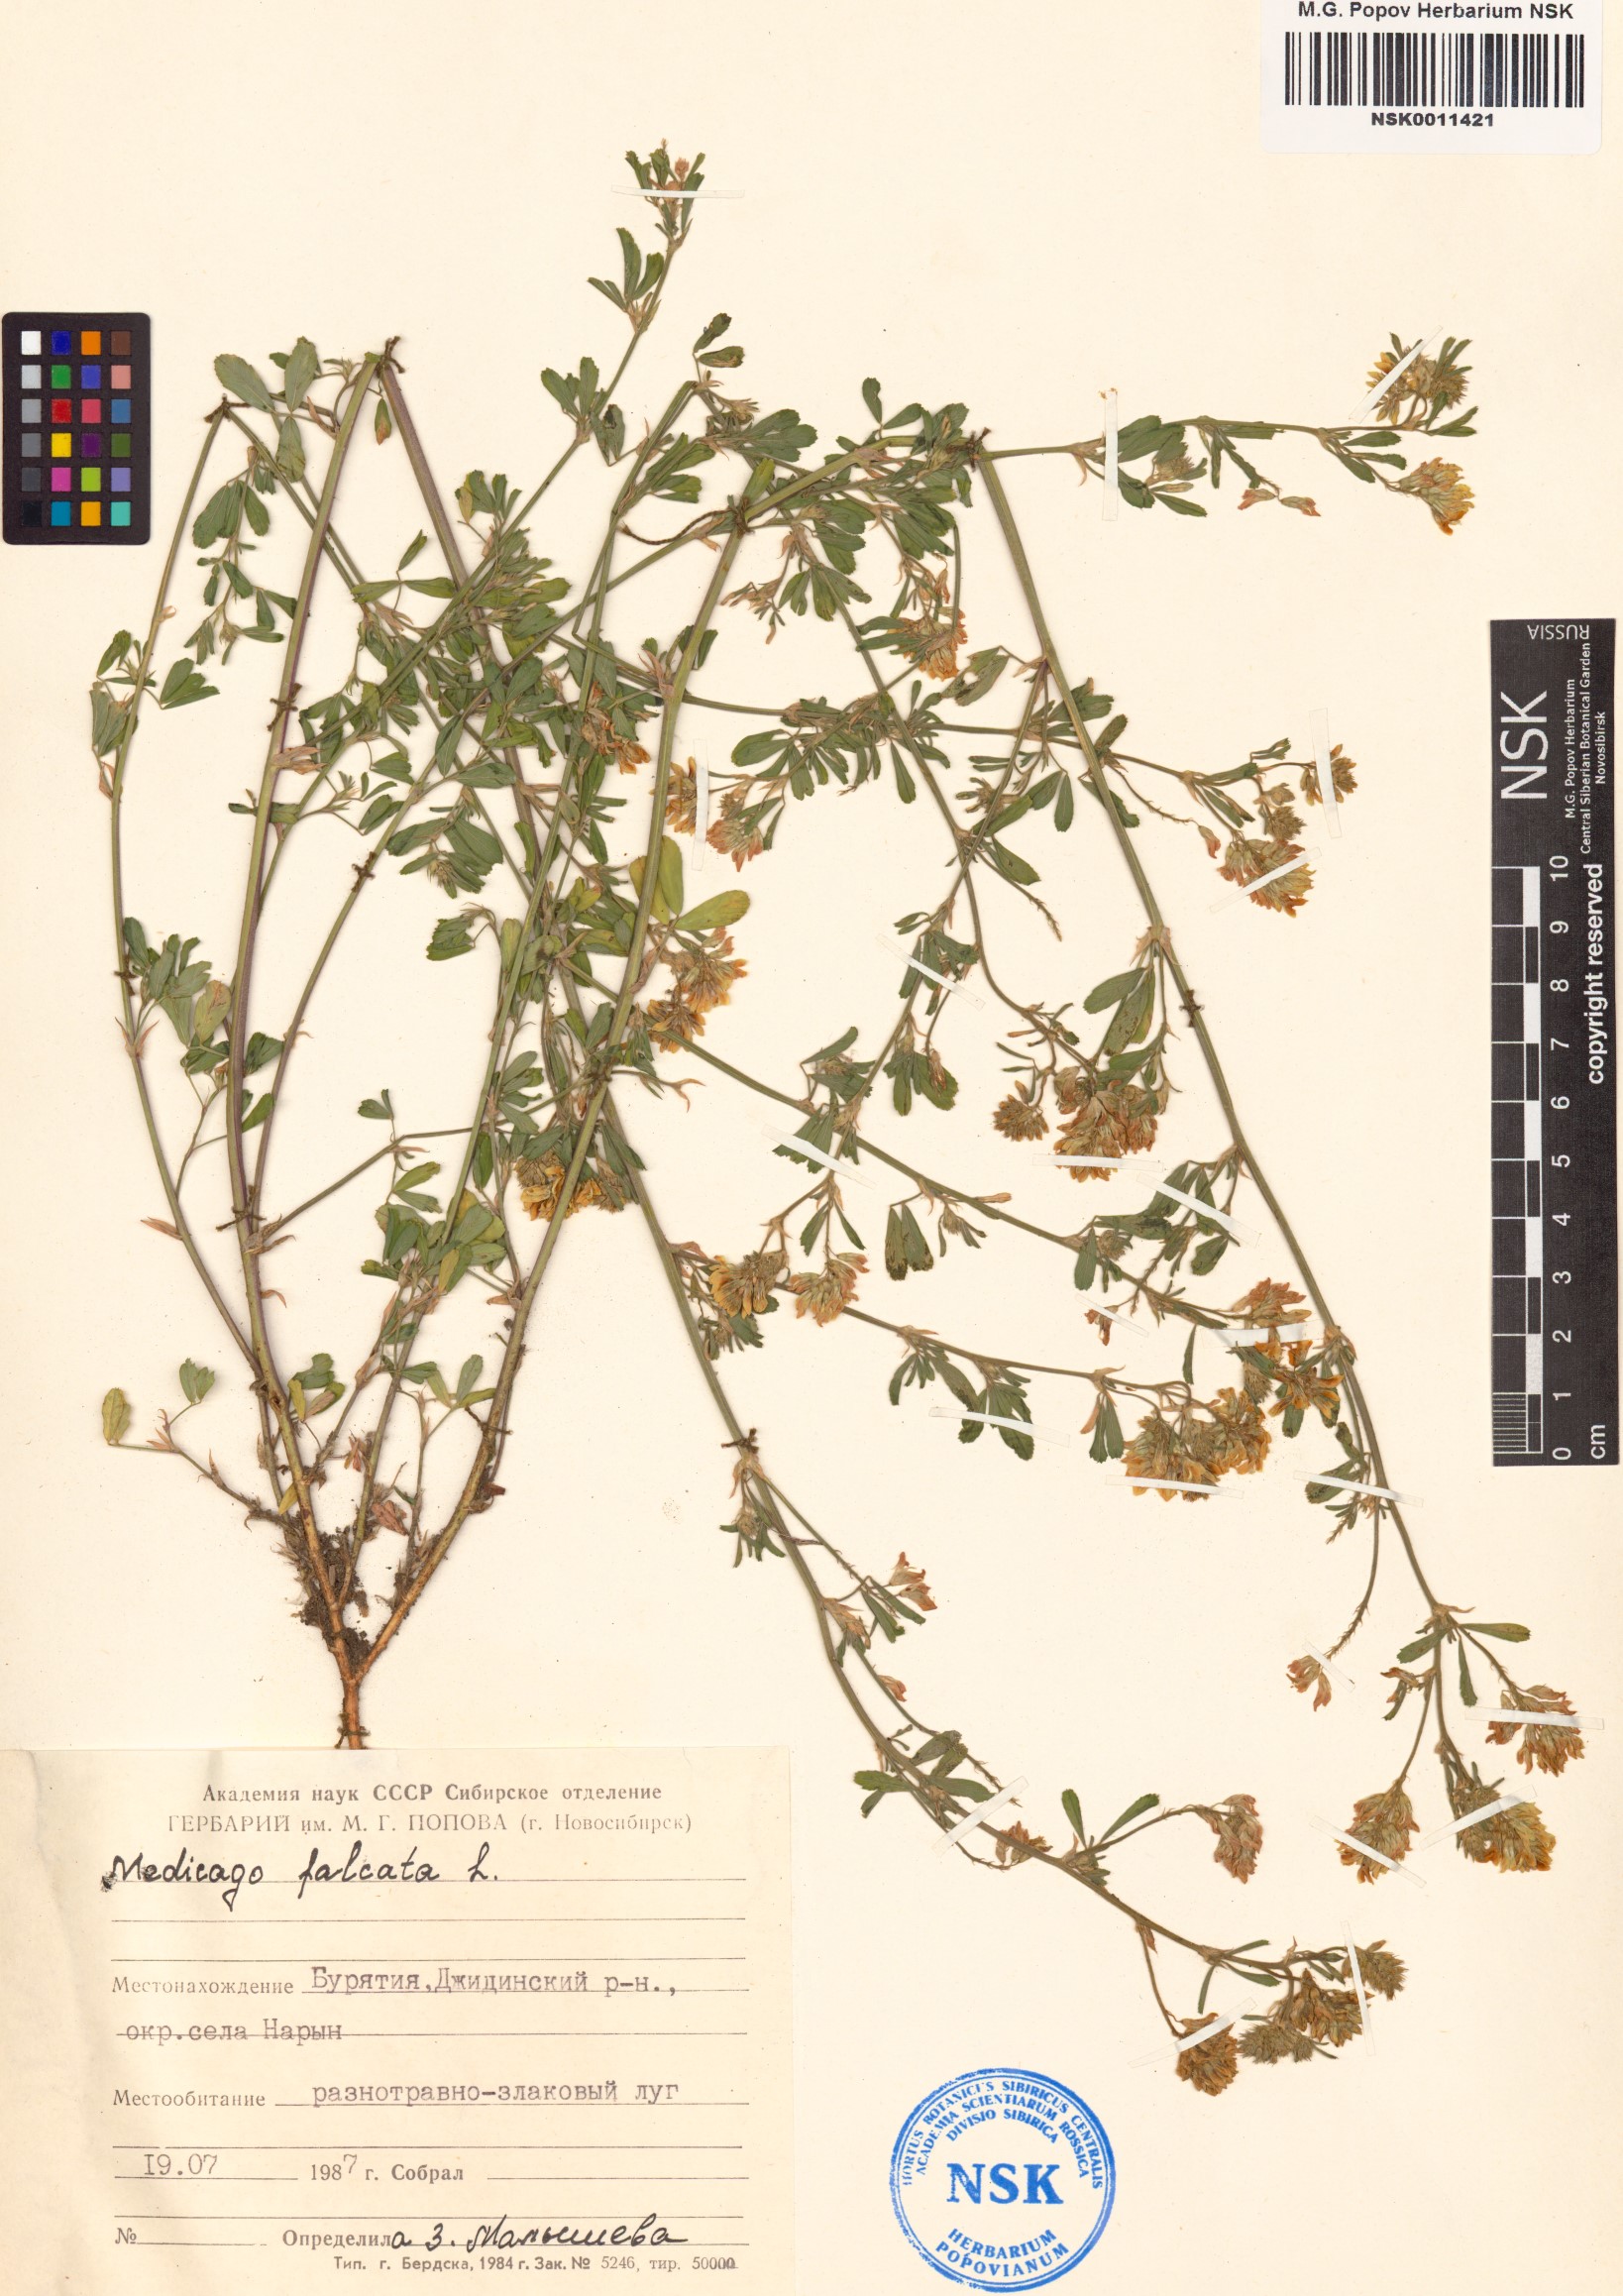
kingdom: Plantae
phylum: Tracheophyta
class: Magnoliopsida
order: Fabales
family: Fabaceae
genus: Medicago
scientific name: Medicago falcata
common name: Sickle medick
